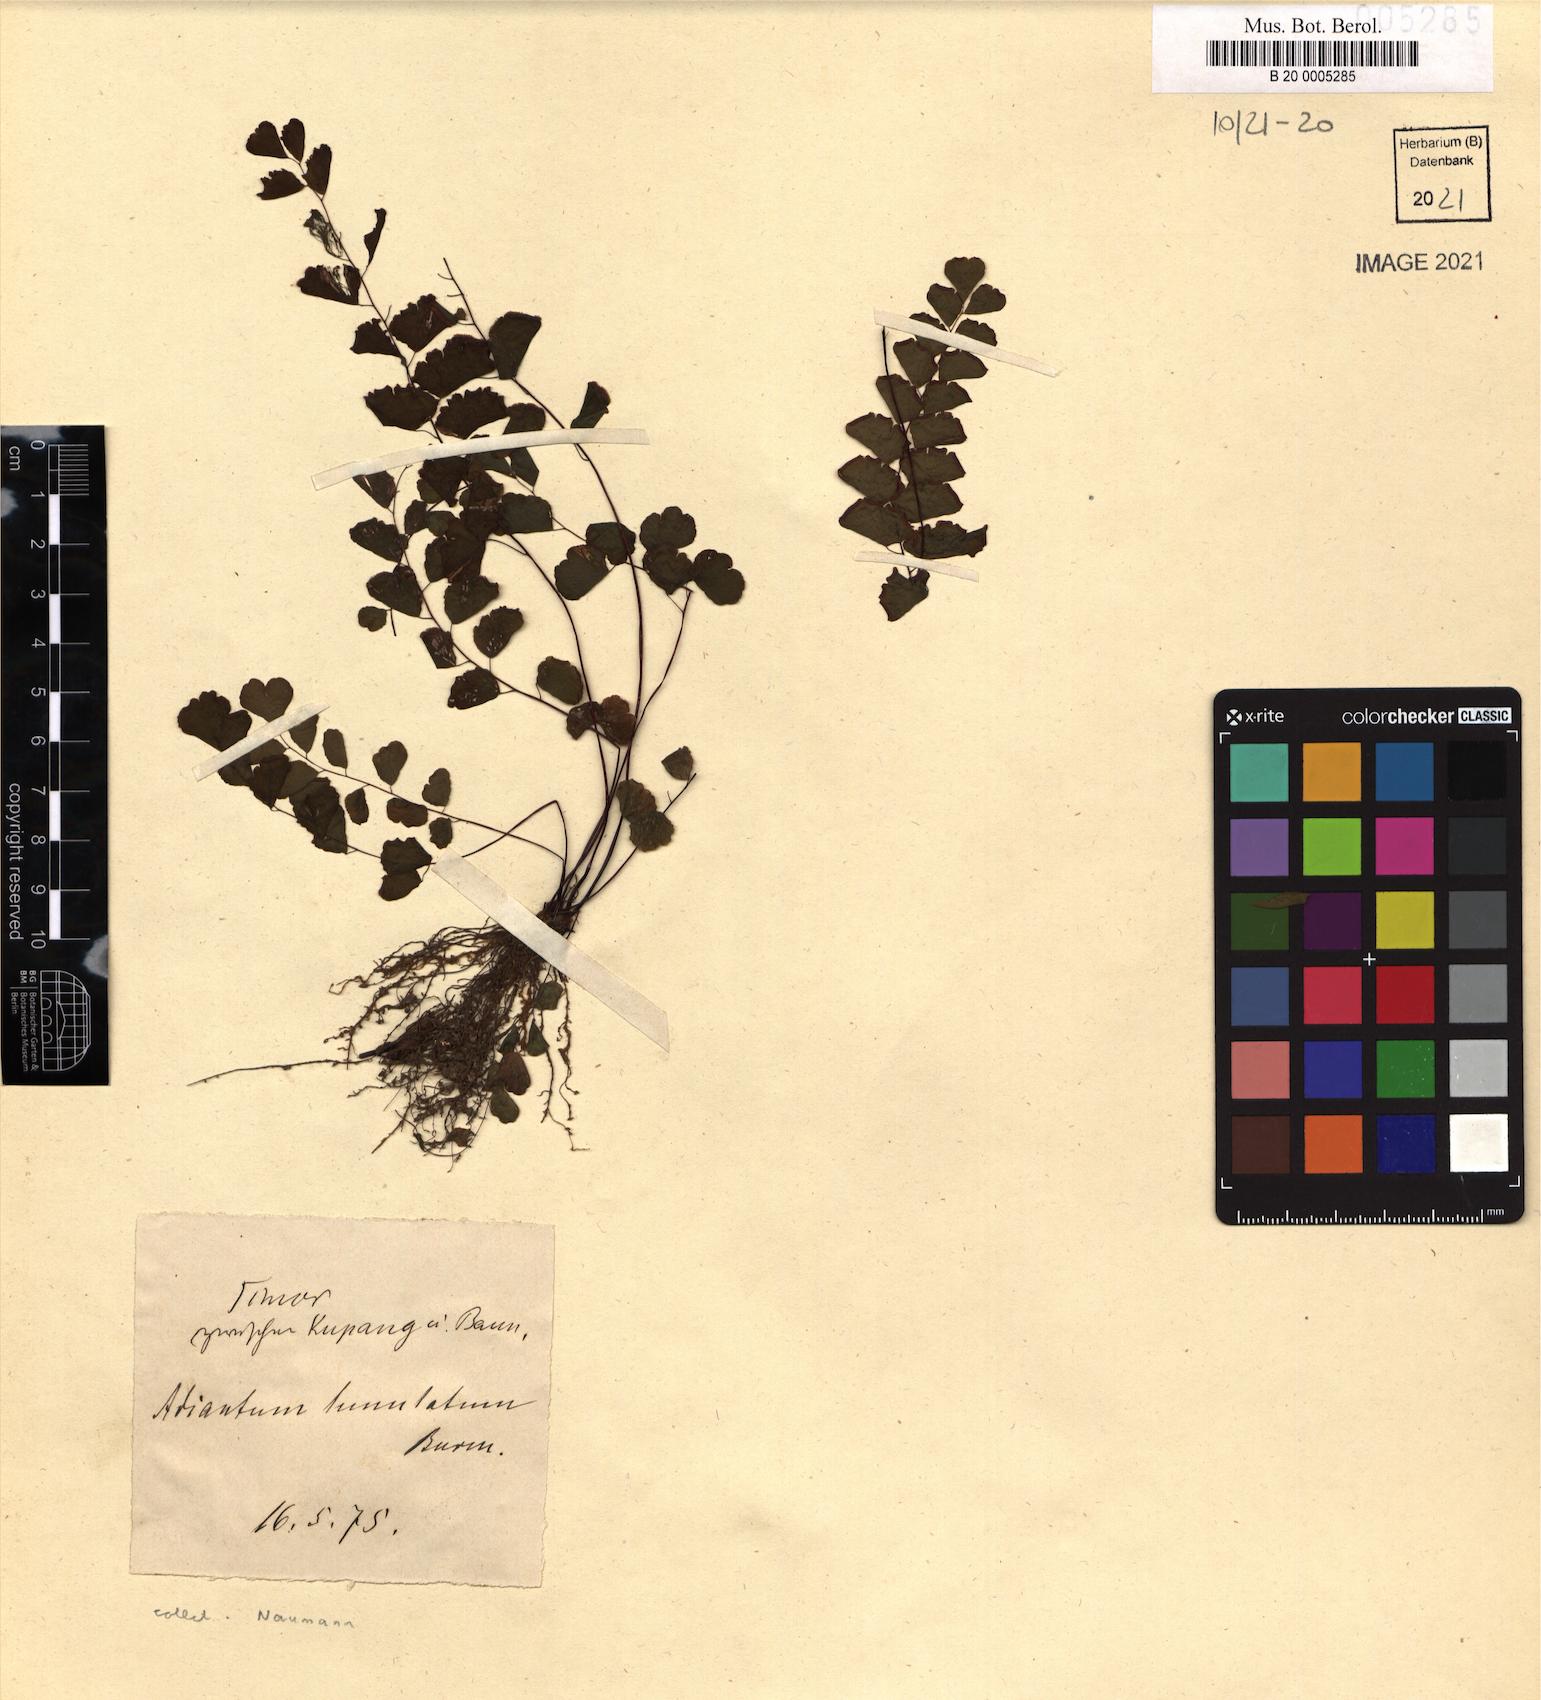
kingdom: Plantae
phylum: Tracheophyta
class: Polypodiopsida
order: Polypodiales
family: Pteridaceae
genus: Adiantum
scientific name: Adiantum philippense
